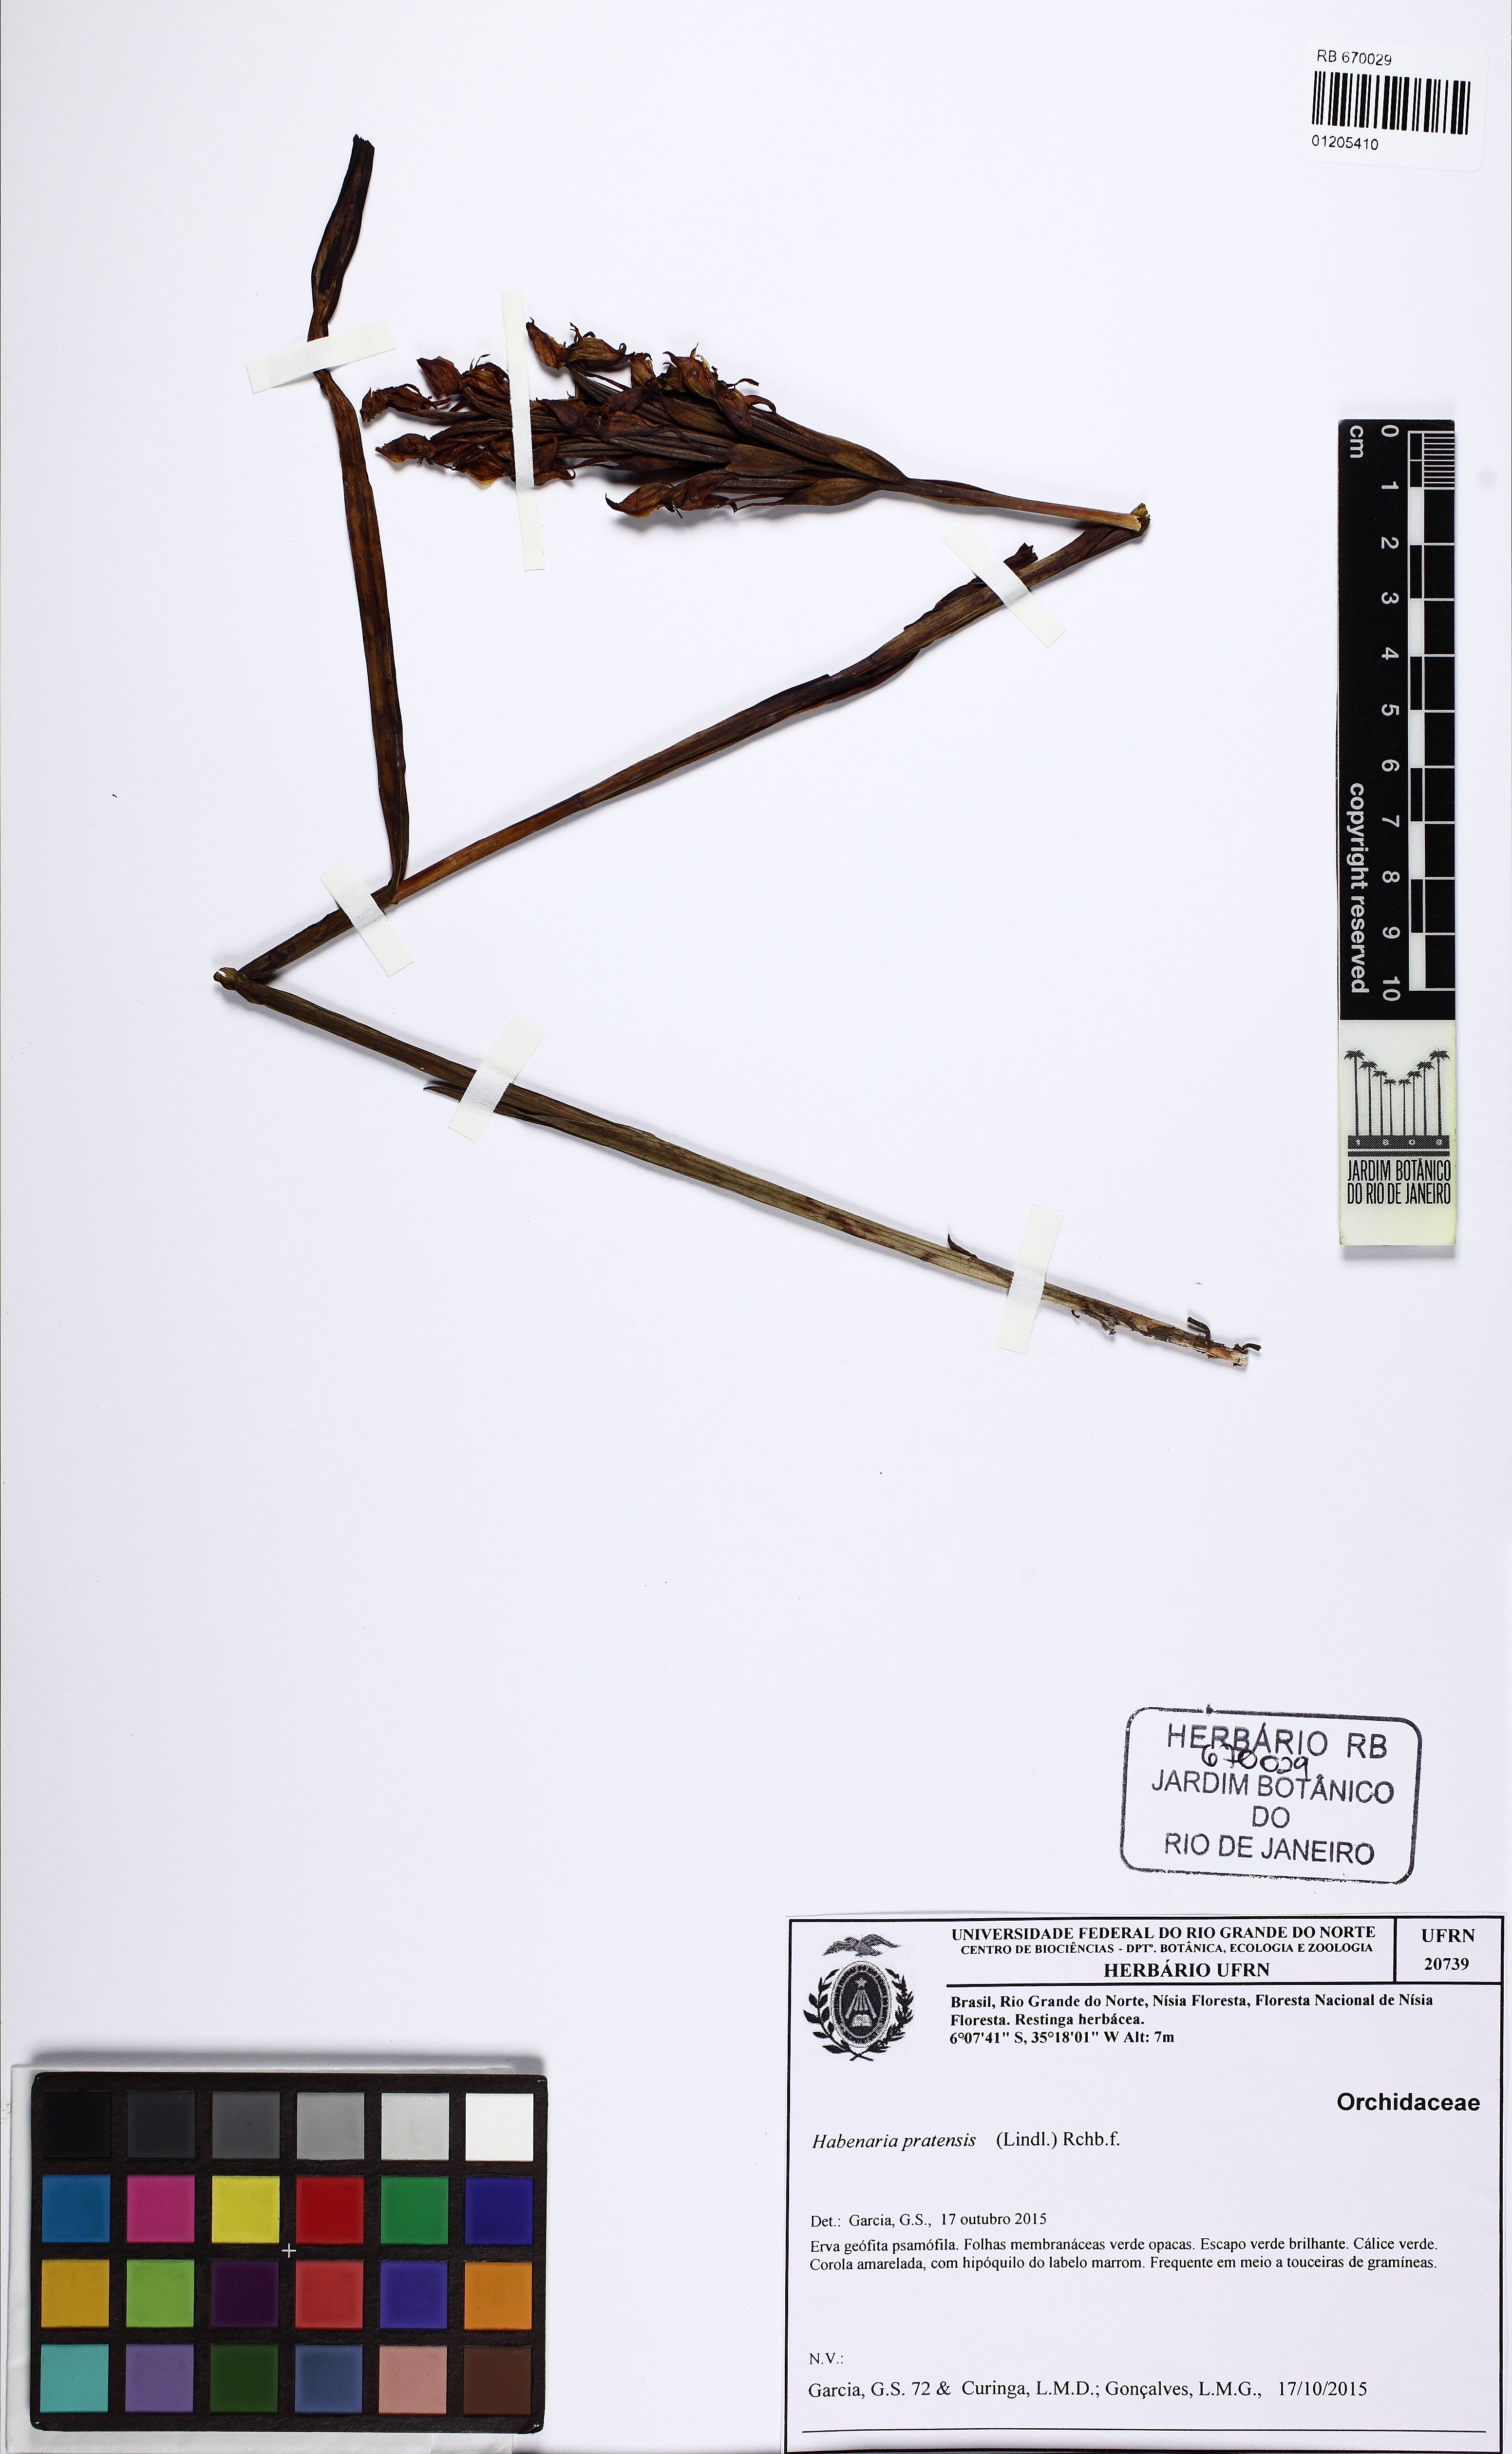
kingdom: Plantae
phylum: Tracheophyta
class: Liliopsida
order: Asparagales
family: Orchidaceae
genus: Habenaria
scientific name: Habenaria pratensis
